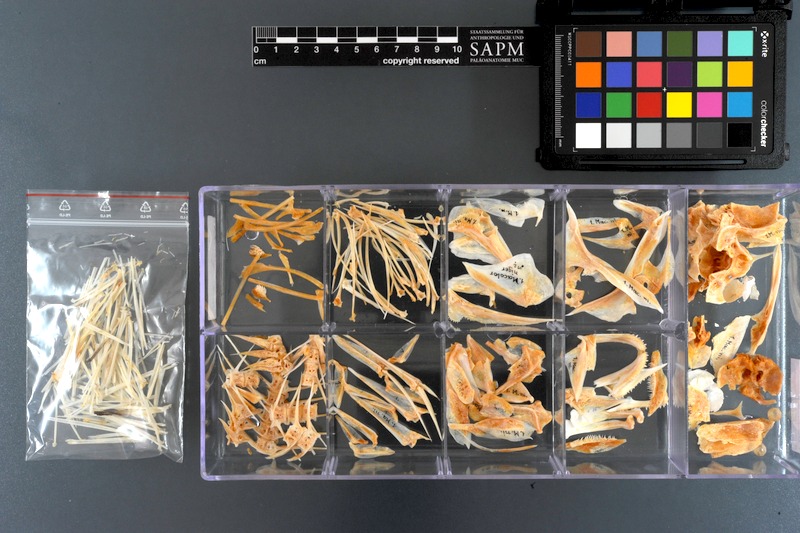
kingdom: Animalia
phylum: Chordata
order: Perciformes
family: Lutjanidae
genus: Macolor
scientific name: Macolor niger
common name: Black snapper
